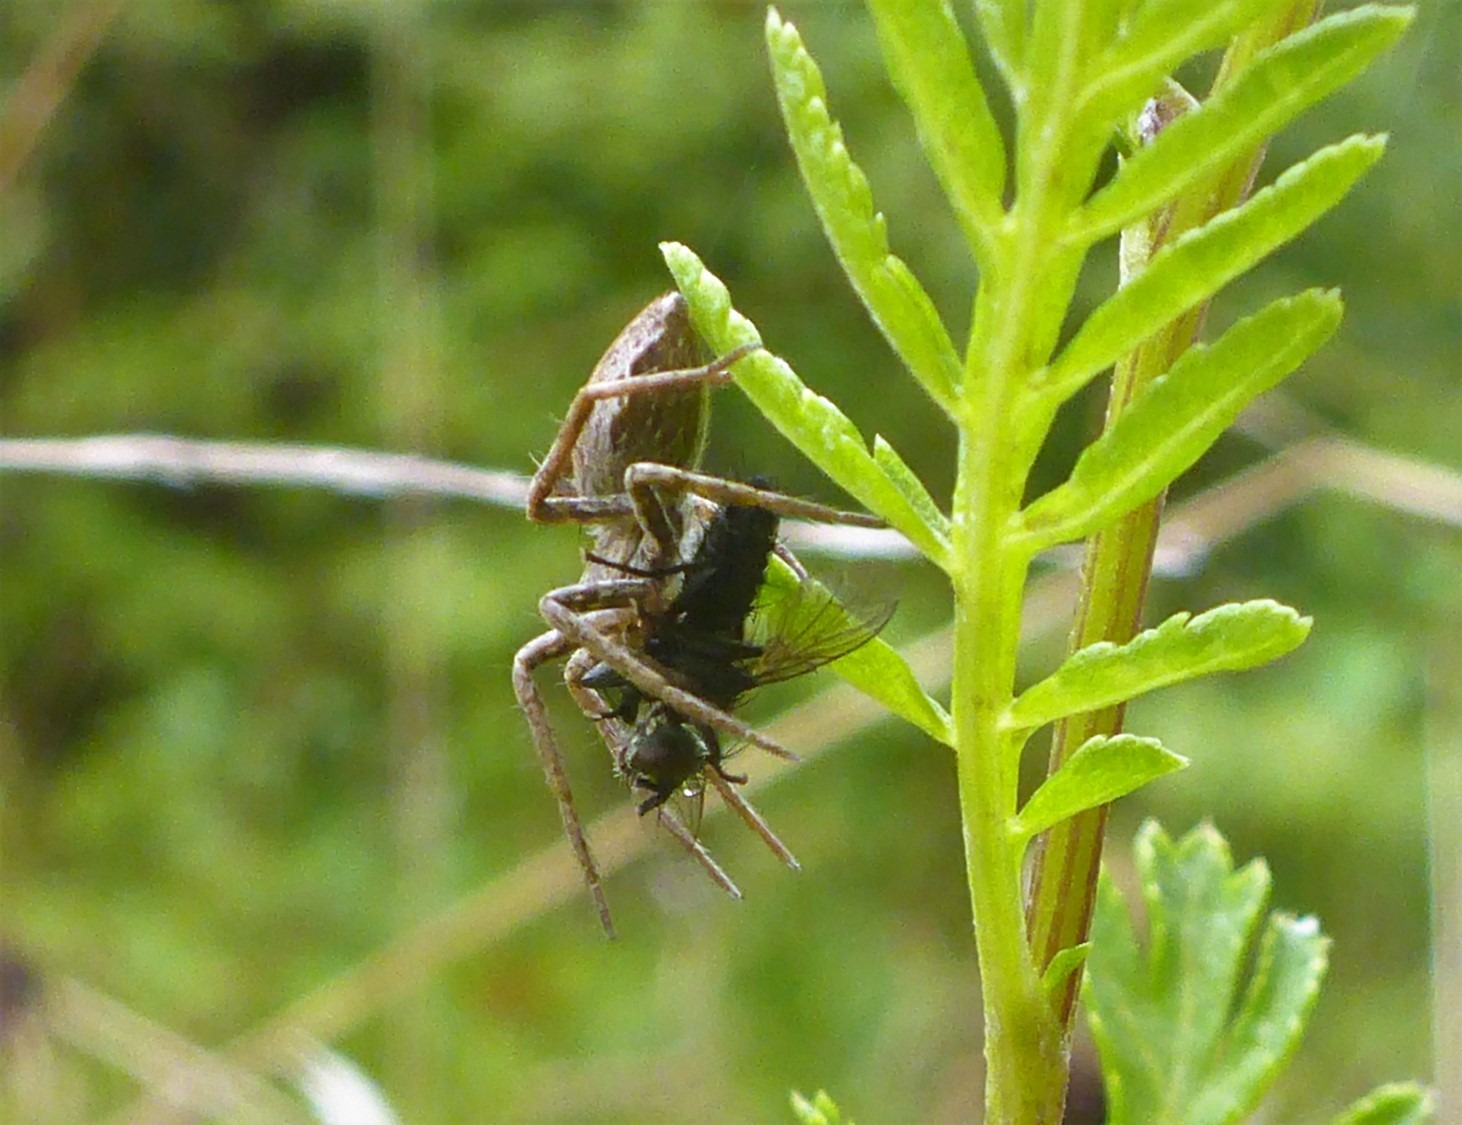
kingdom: Animalia
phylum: Arthropoda
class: Arachnida
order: Araneae
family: Pisauridae
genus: Pisaura
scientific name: Pisaura mirabilis
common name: Almindelig rovedderkop
